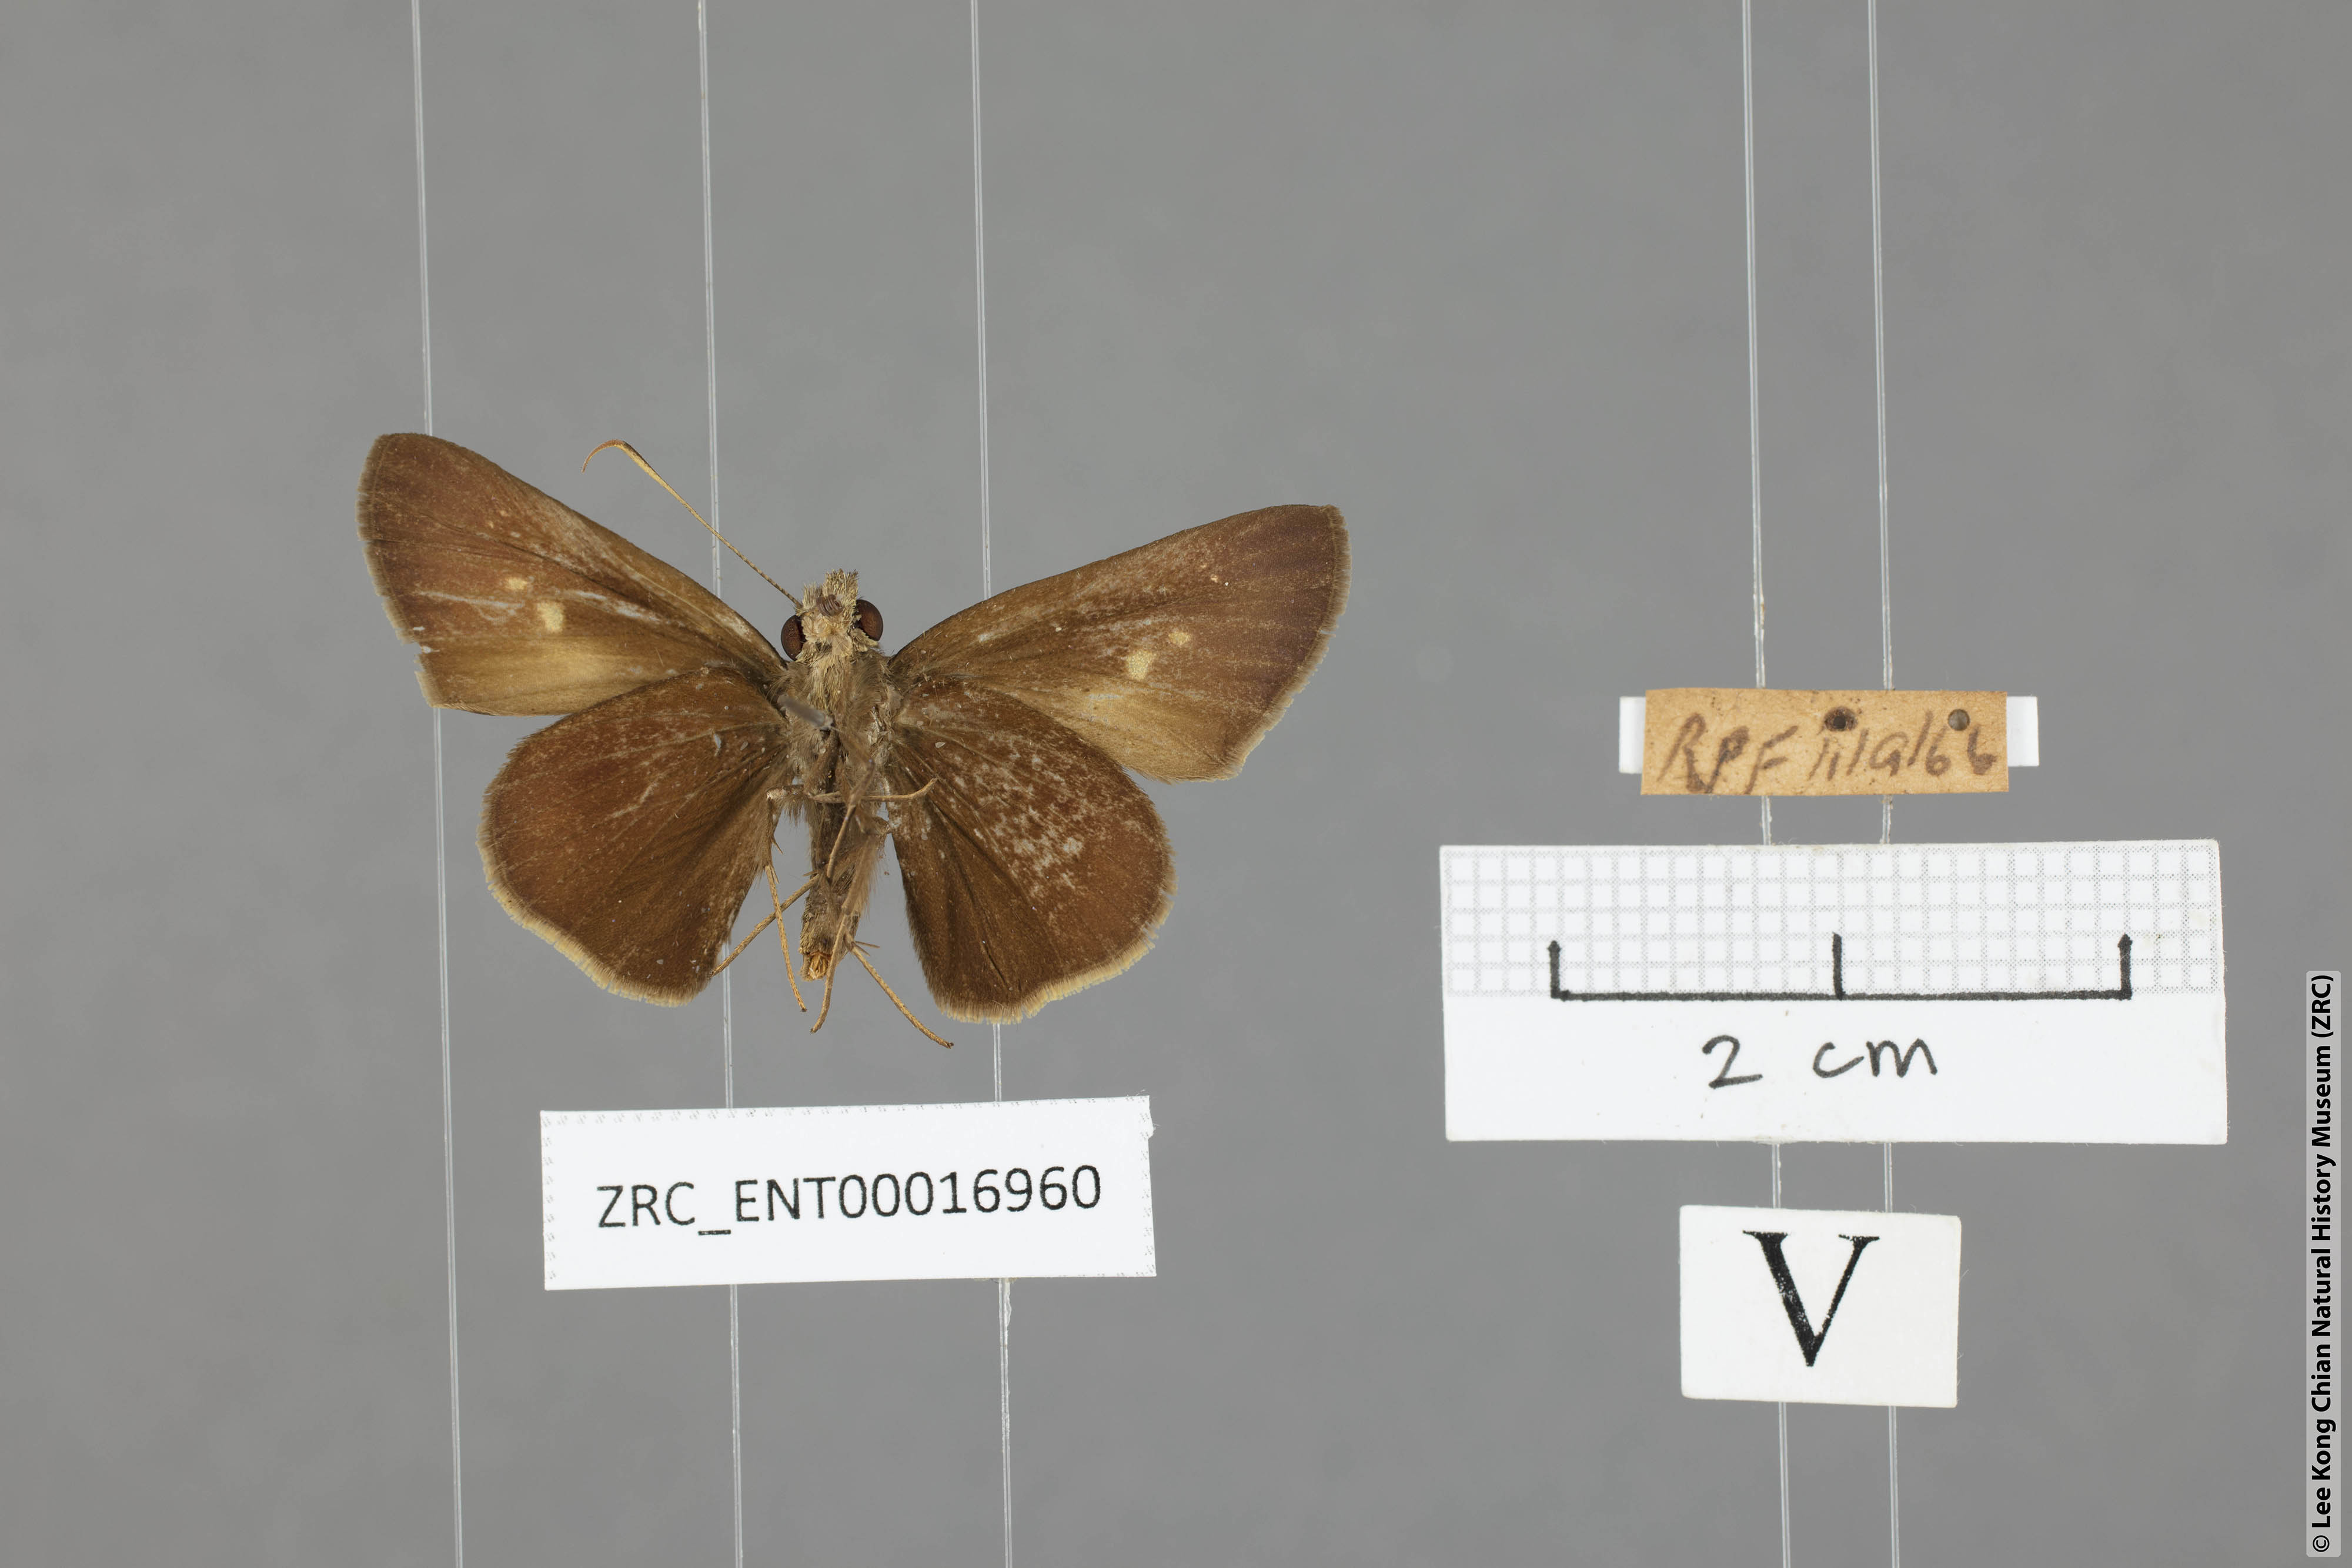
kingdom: Animalia
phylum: Arthropoda
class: Insecta
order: Lepidoptera
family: Hesperiidae
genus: Ge
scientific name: Ge
